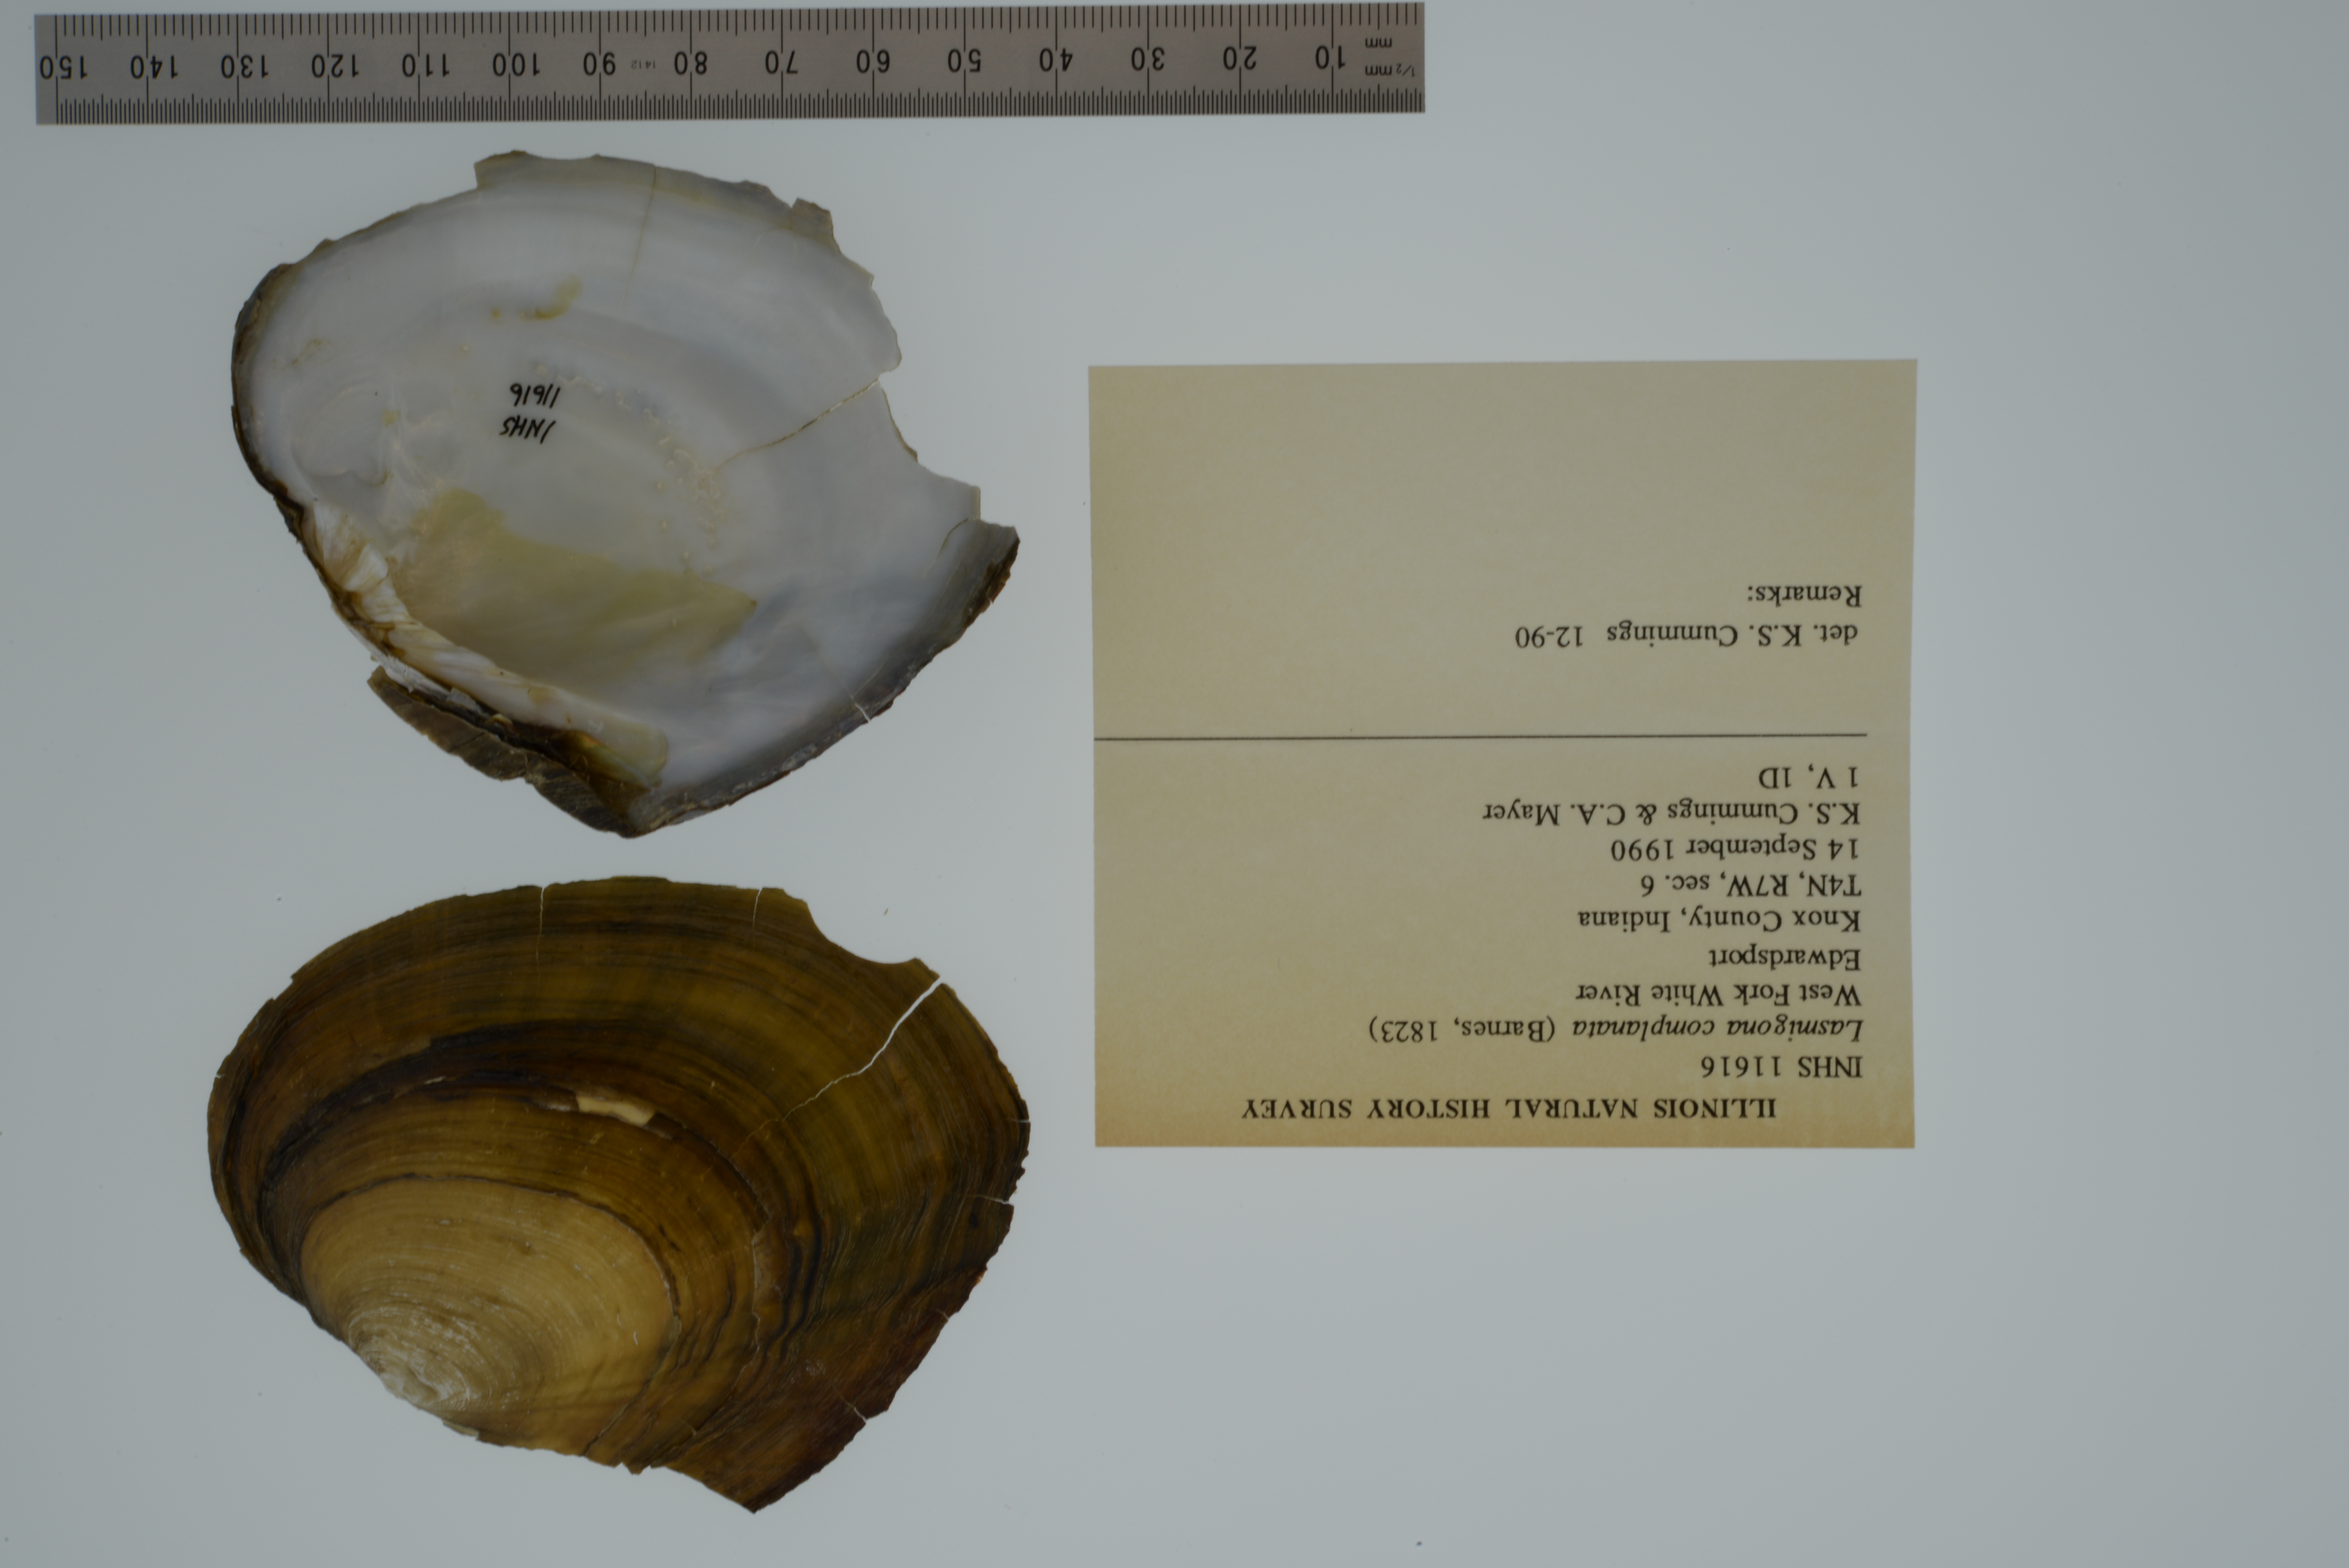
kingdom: Animalia
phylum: Mollusca
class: Bivalvia
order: Unionida
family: Unionidae
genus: Lasmigona
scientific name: Lasmigona complanata
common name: White heelsplitter
